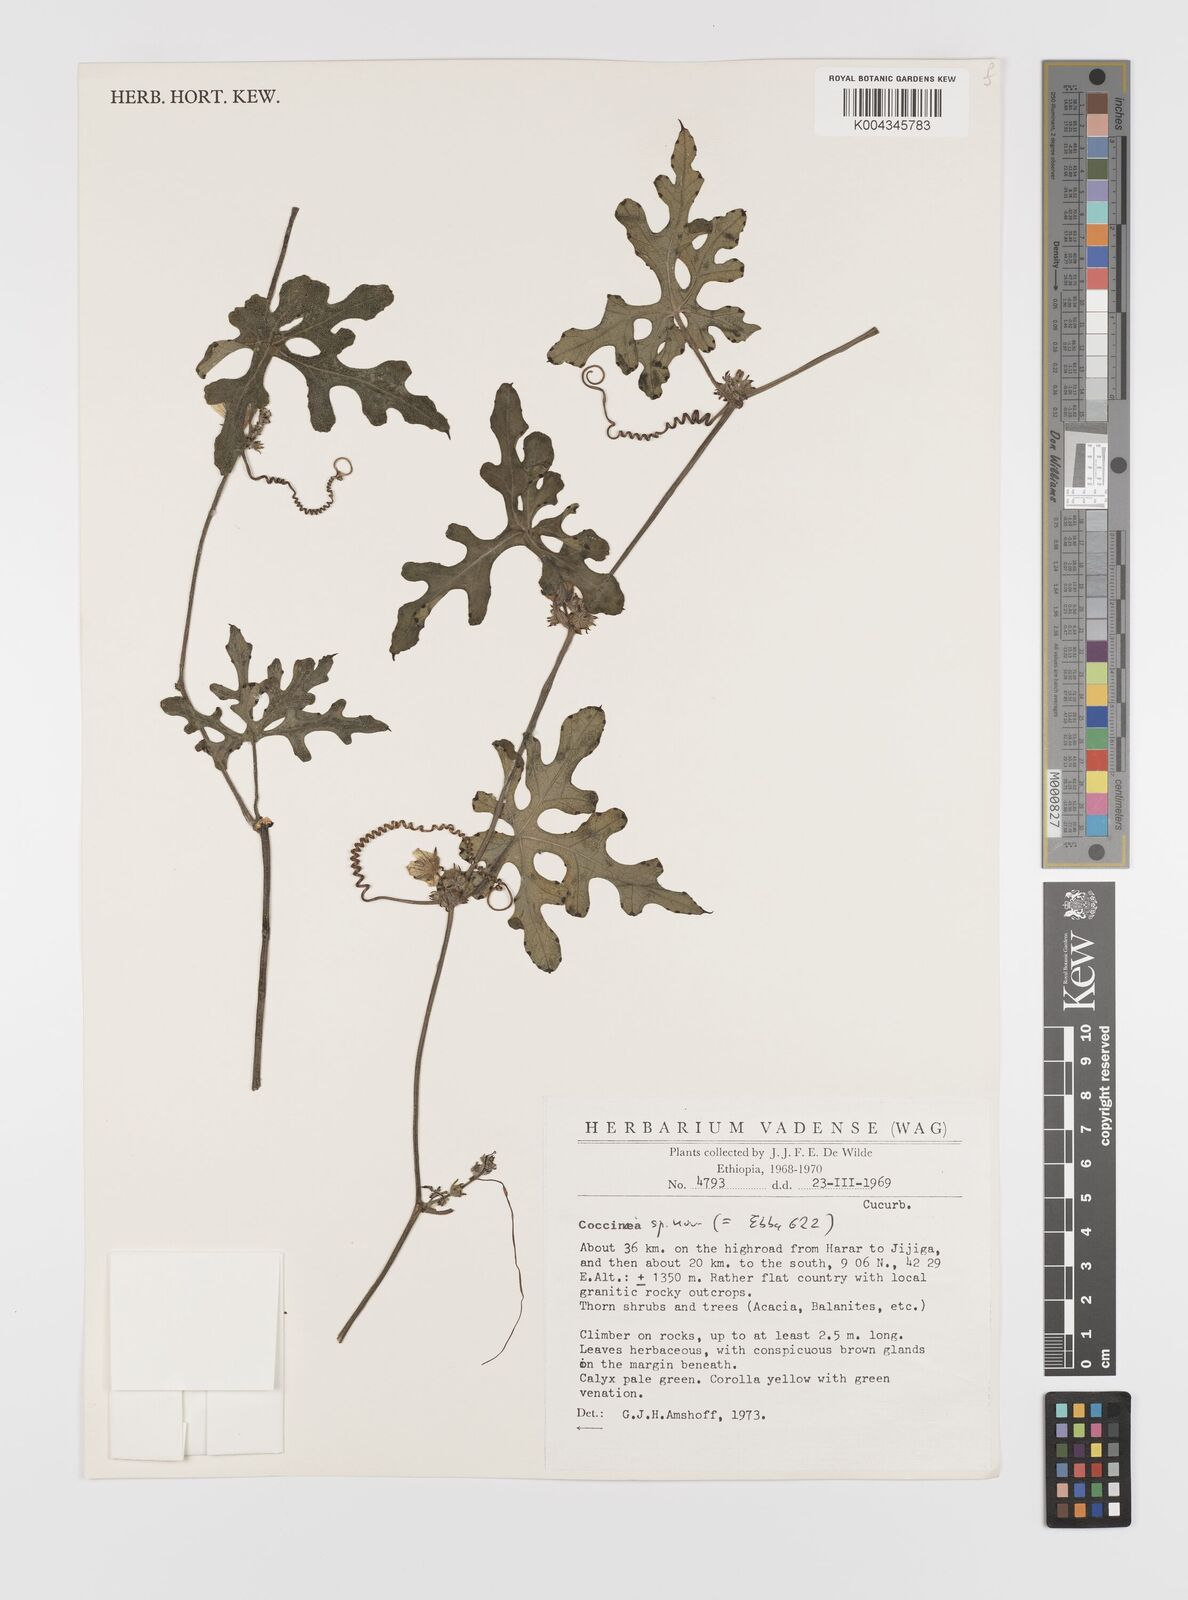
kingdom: Plantae
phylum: Tracheophyta
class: Magnoliopsida
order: Cucurbitales
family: Cucurbitaceae
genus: Coccinia
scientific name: Coccinia
